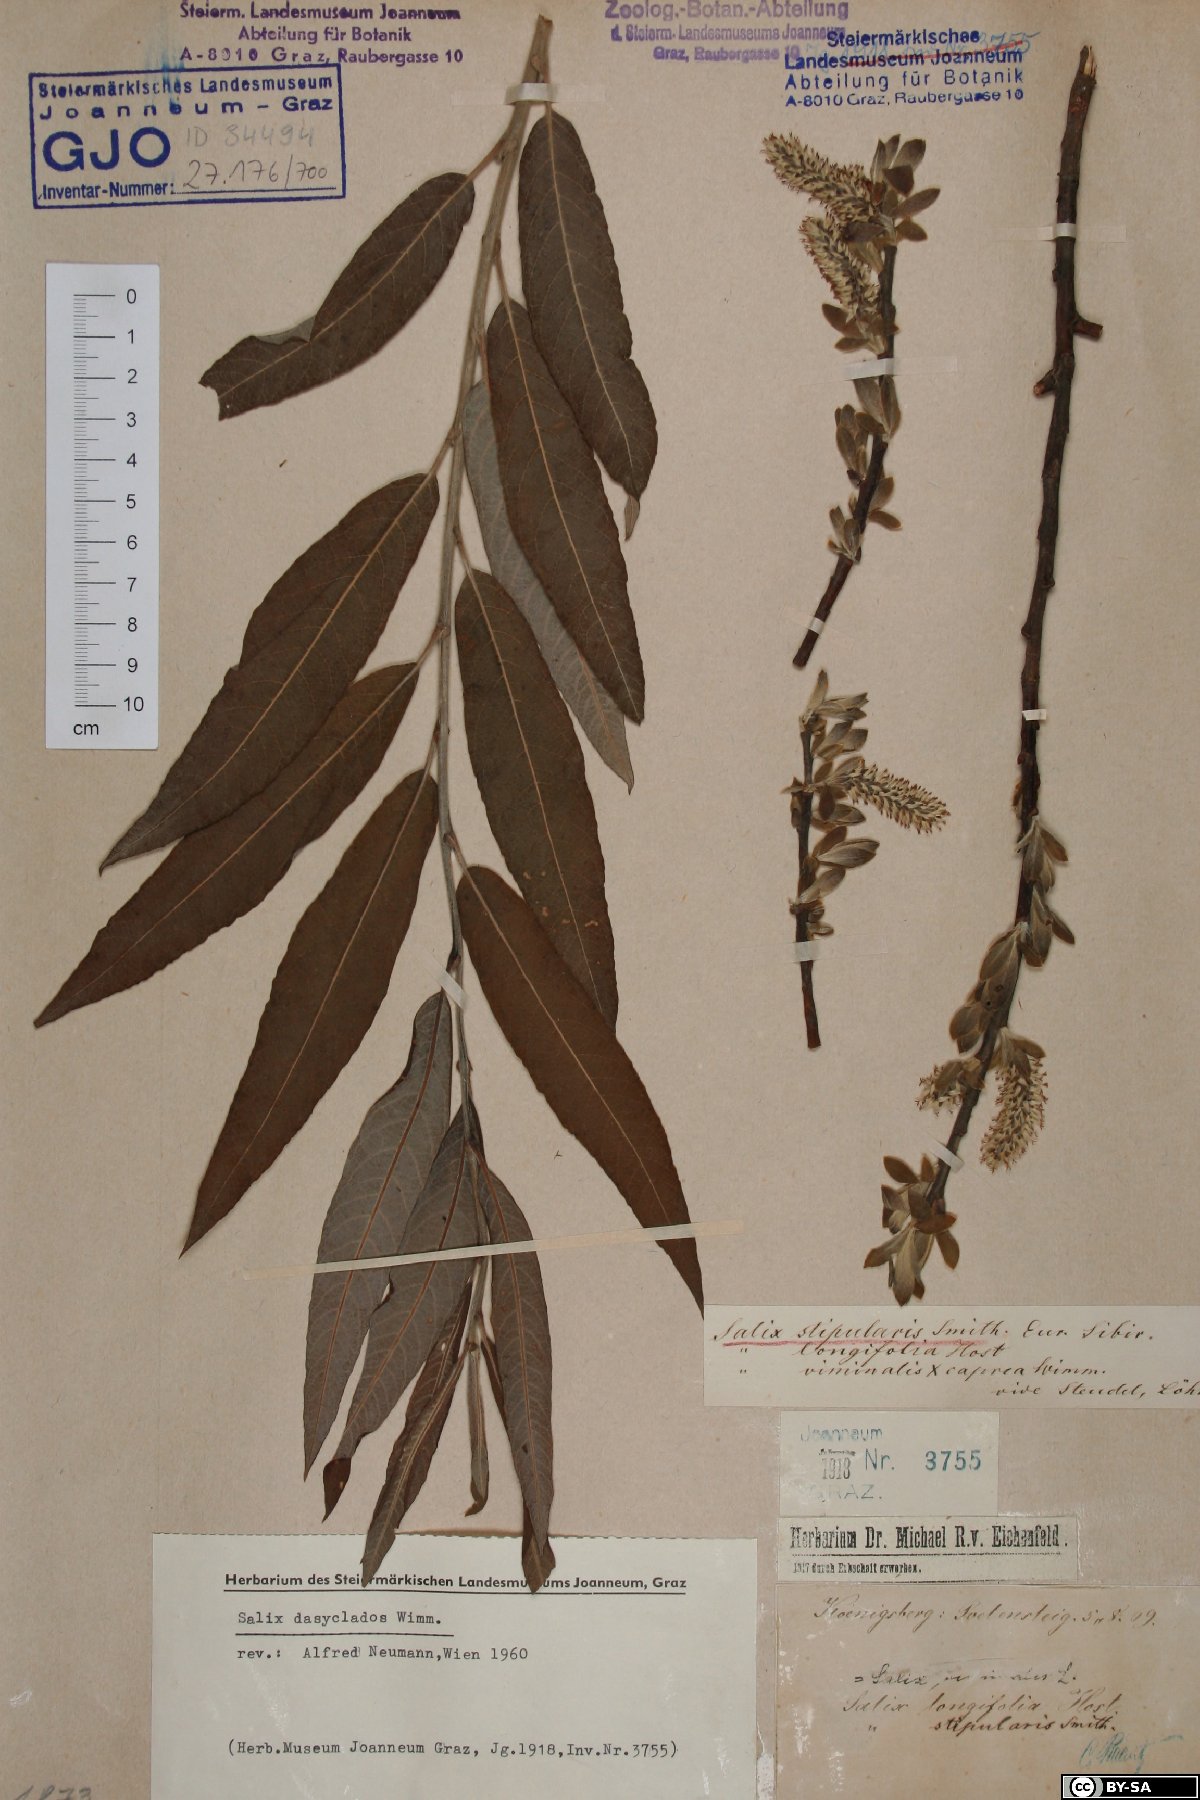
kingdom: Plantae
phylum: Tracheophyta
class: Magnoliopsida
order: Malpighiales
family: Salicaceae
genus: Salix
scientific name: Salix gmelinii
